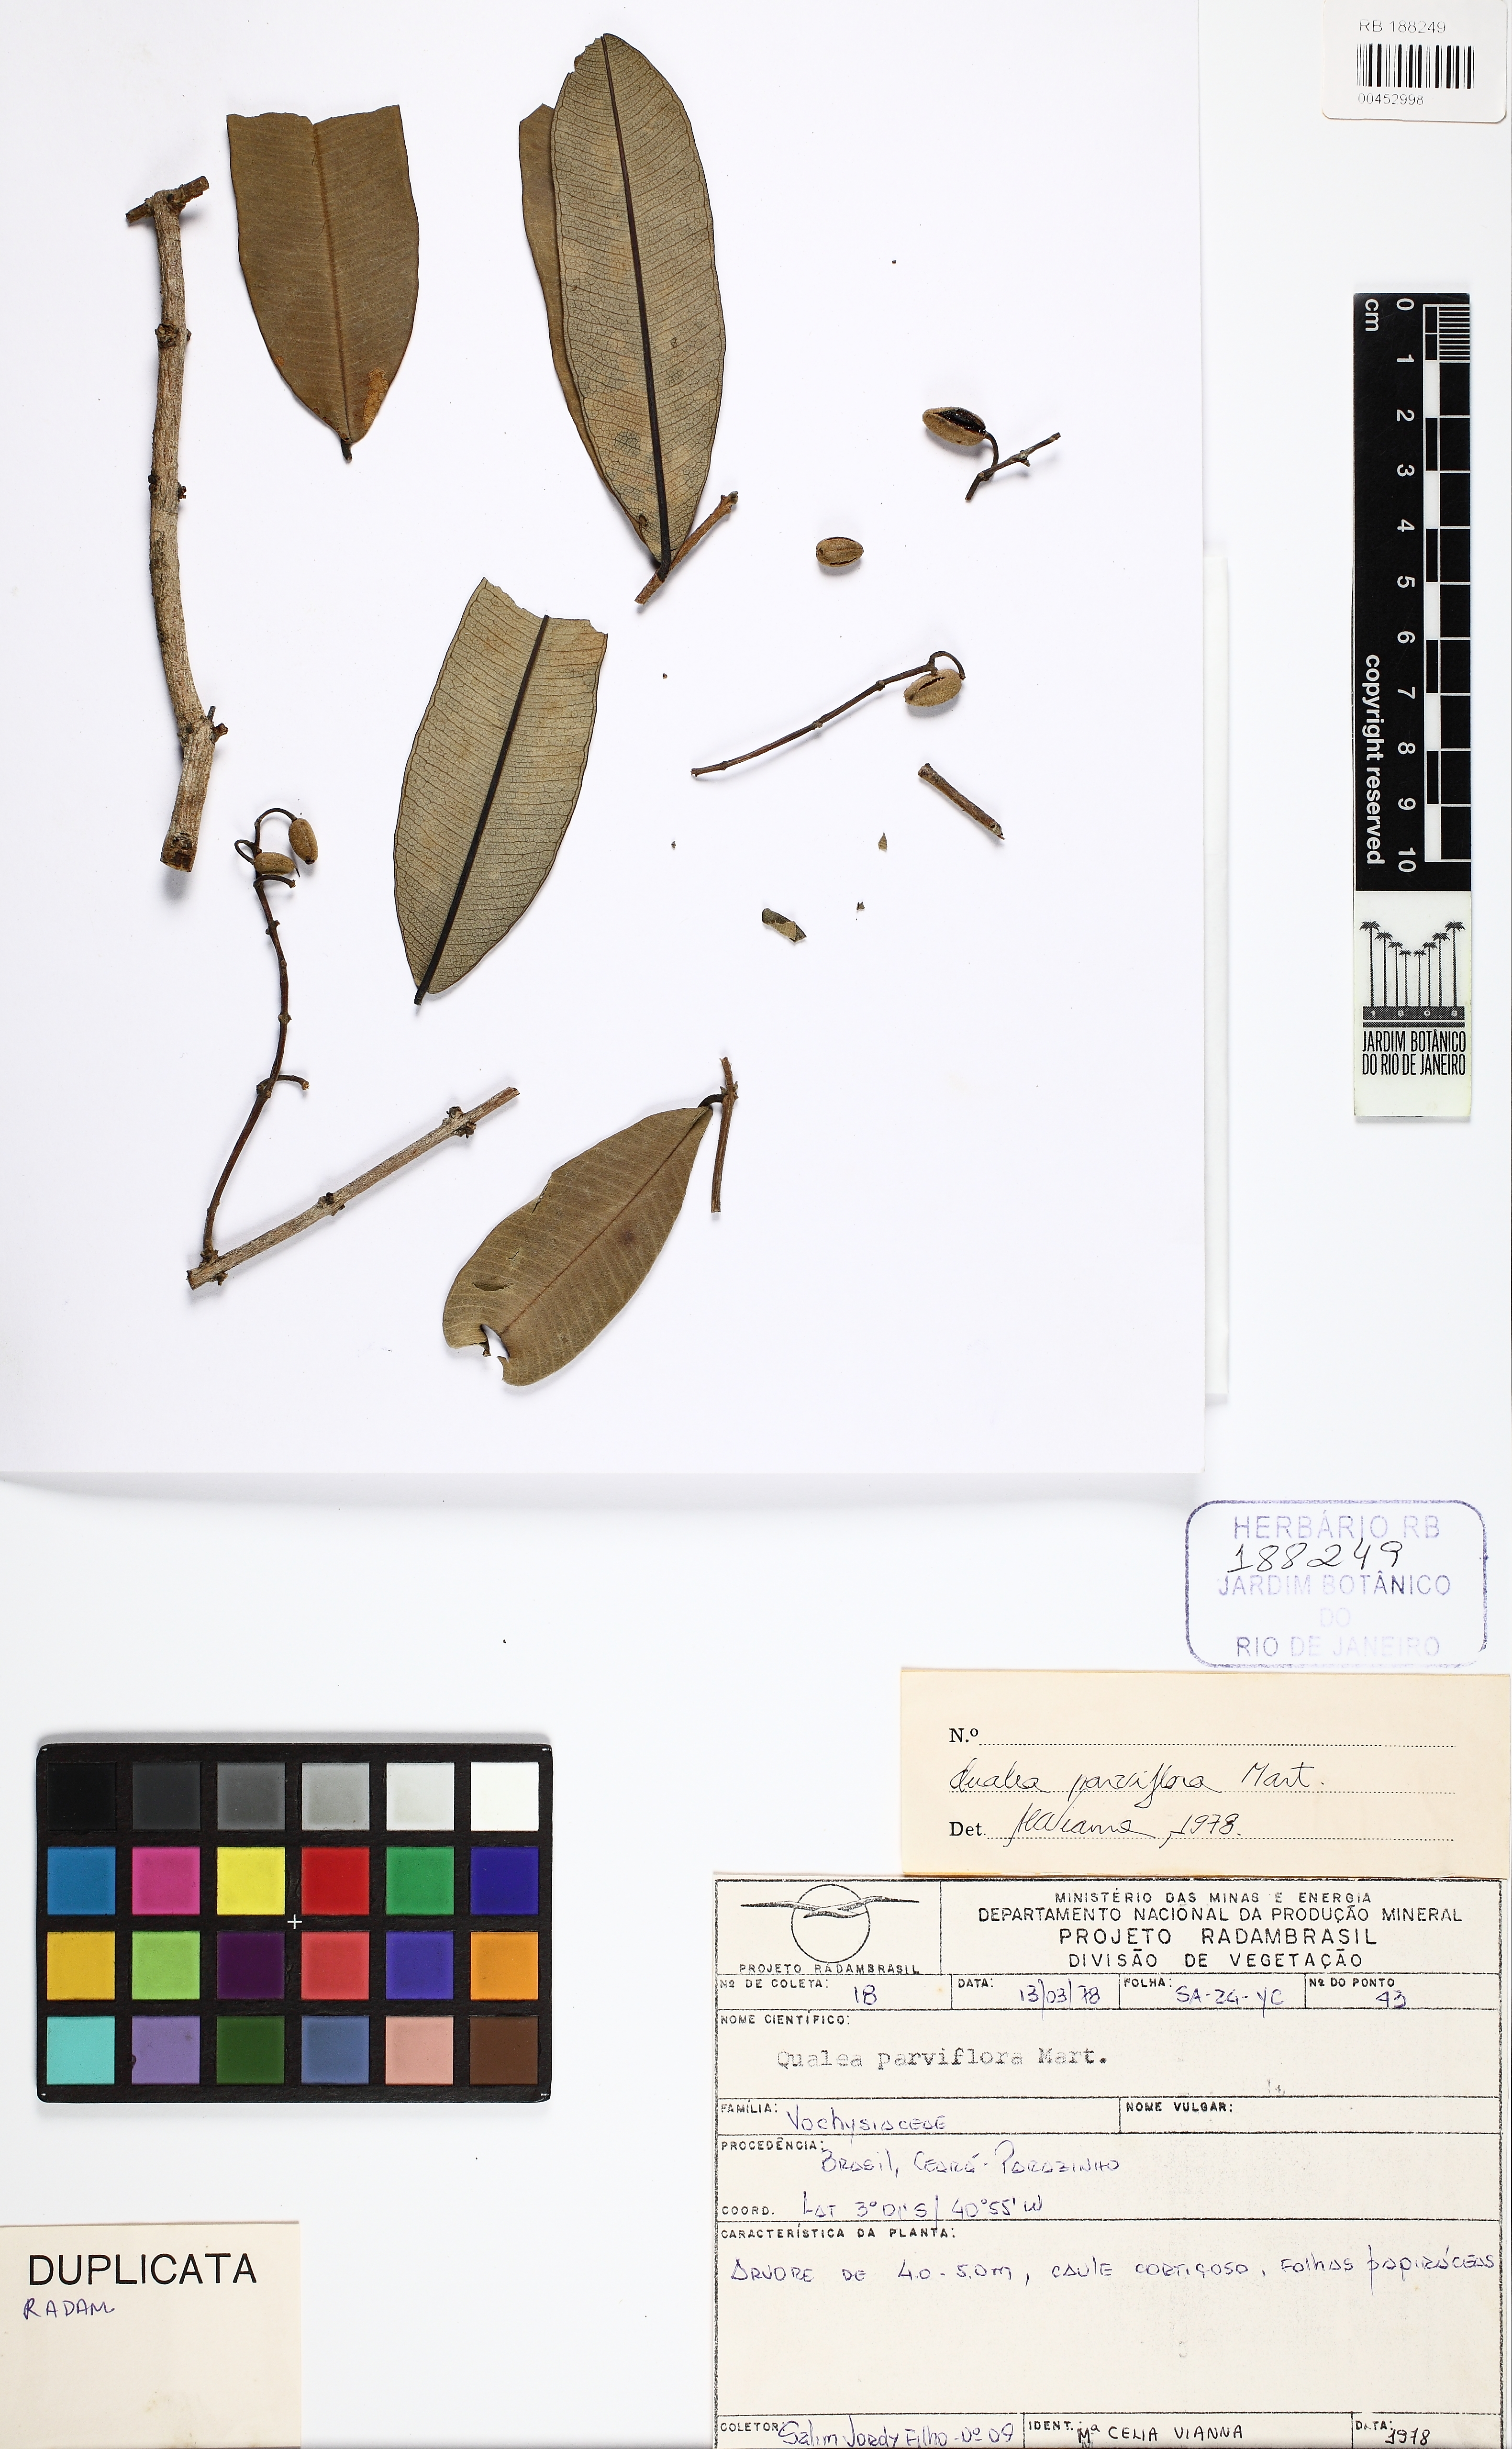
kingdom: Plantae
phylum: Tracheophyta
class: Magnoliopsida
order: Myrtales
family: Vochysiaceae
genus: Qualea
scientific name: Qualea parviflora
